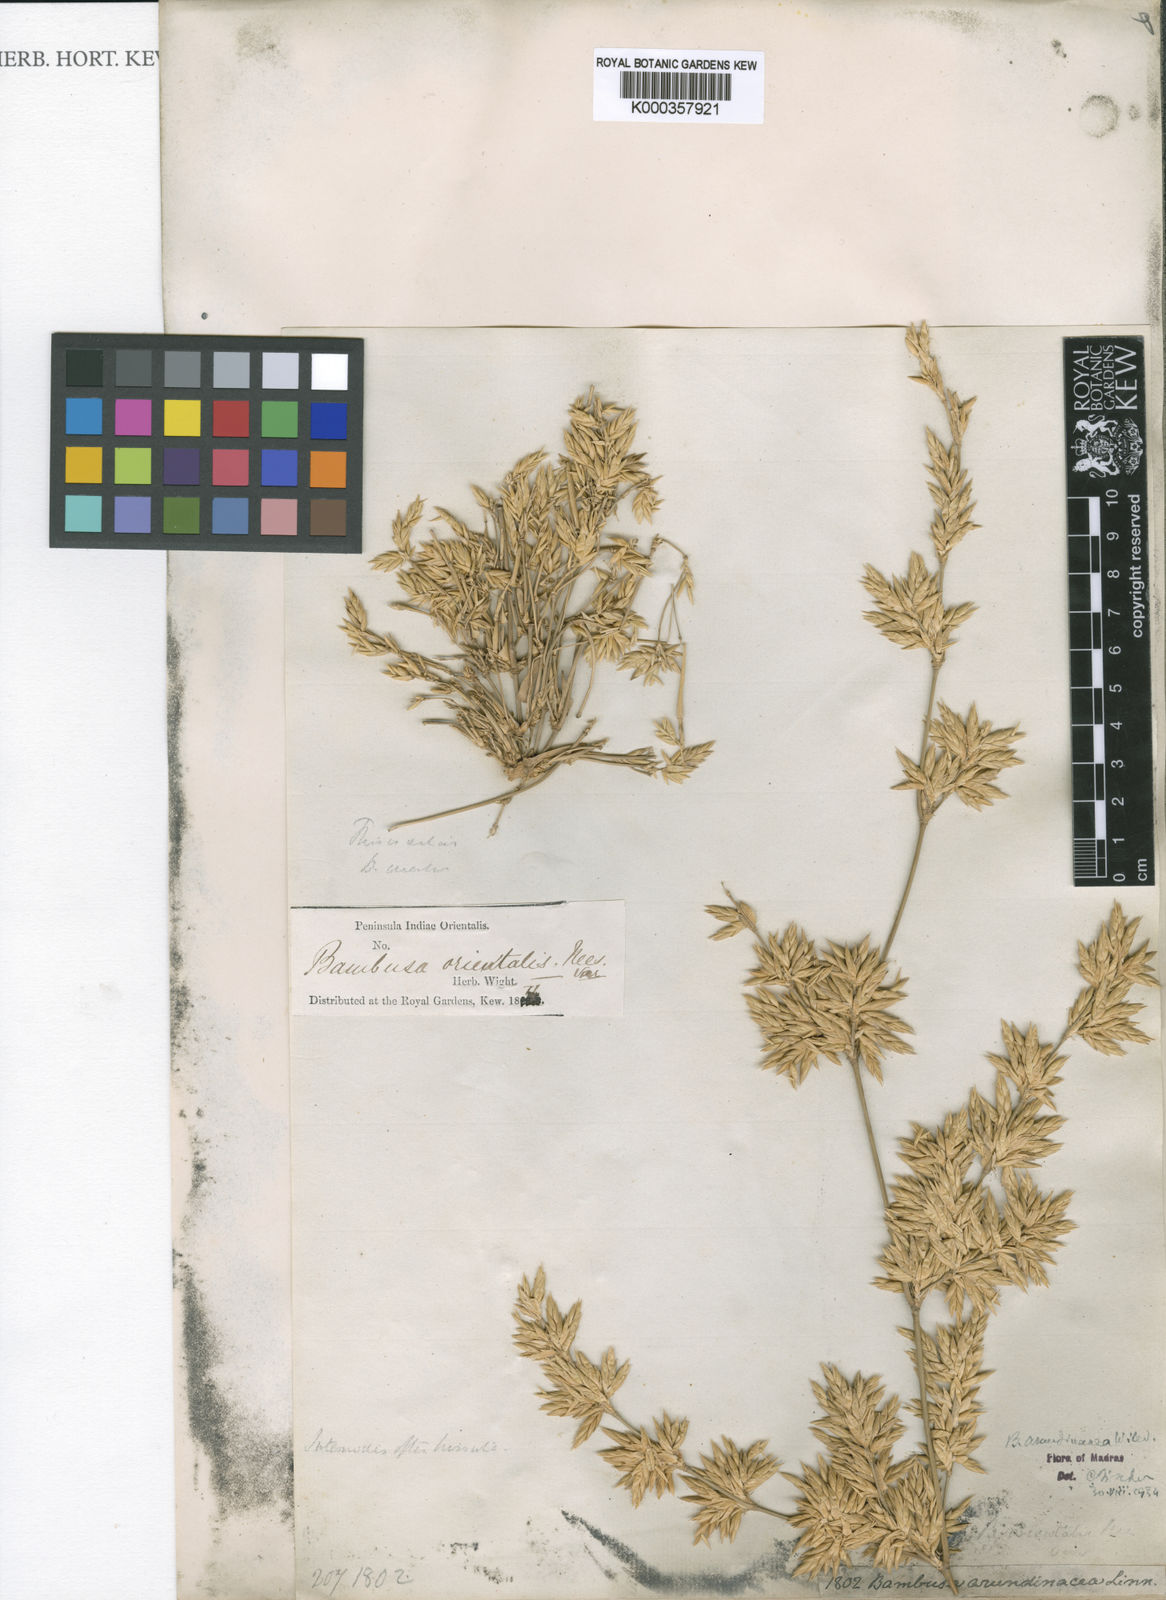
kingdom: Plantae
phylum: Tracheophyta
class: Liliopsida
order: Poales
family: Poaceae
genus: Bambusa
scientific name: Bambusa bambos
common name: Indian thorny bamboo
